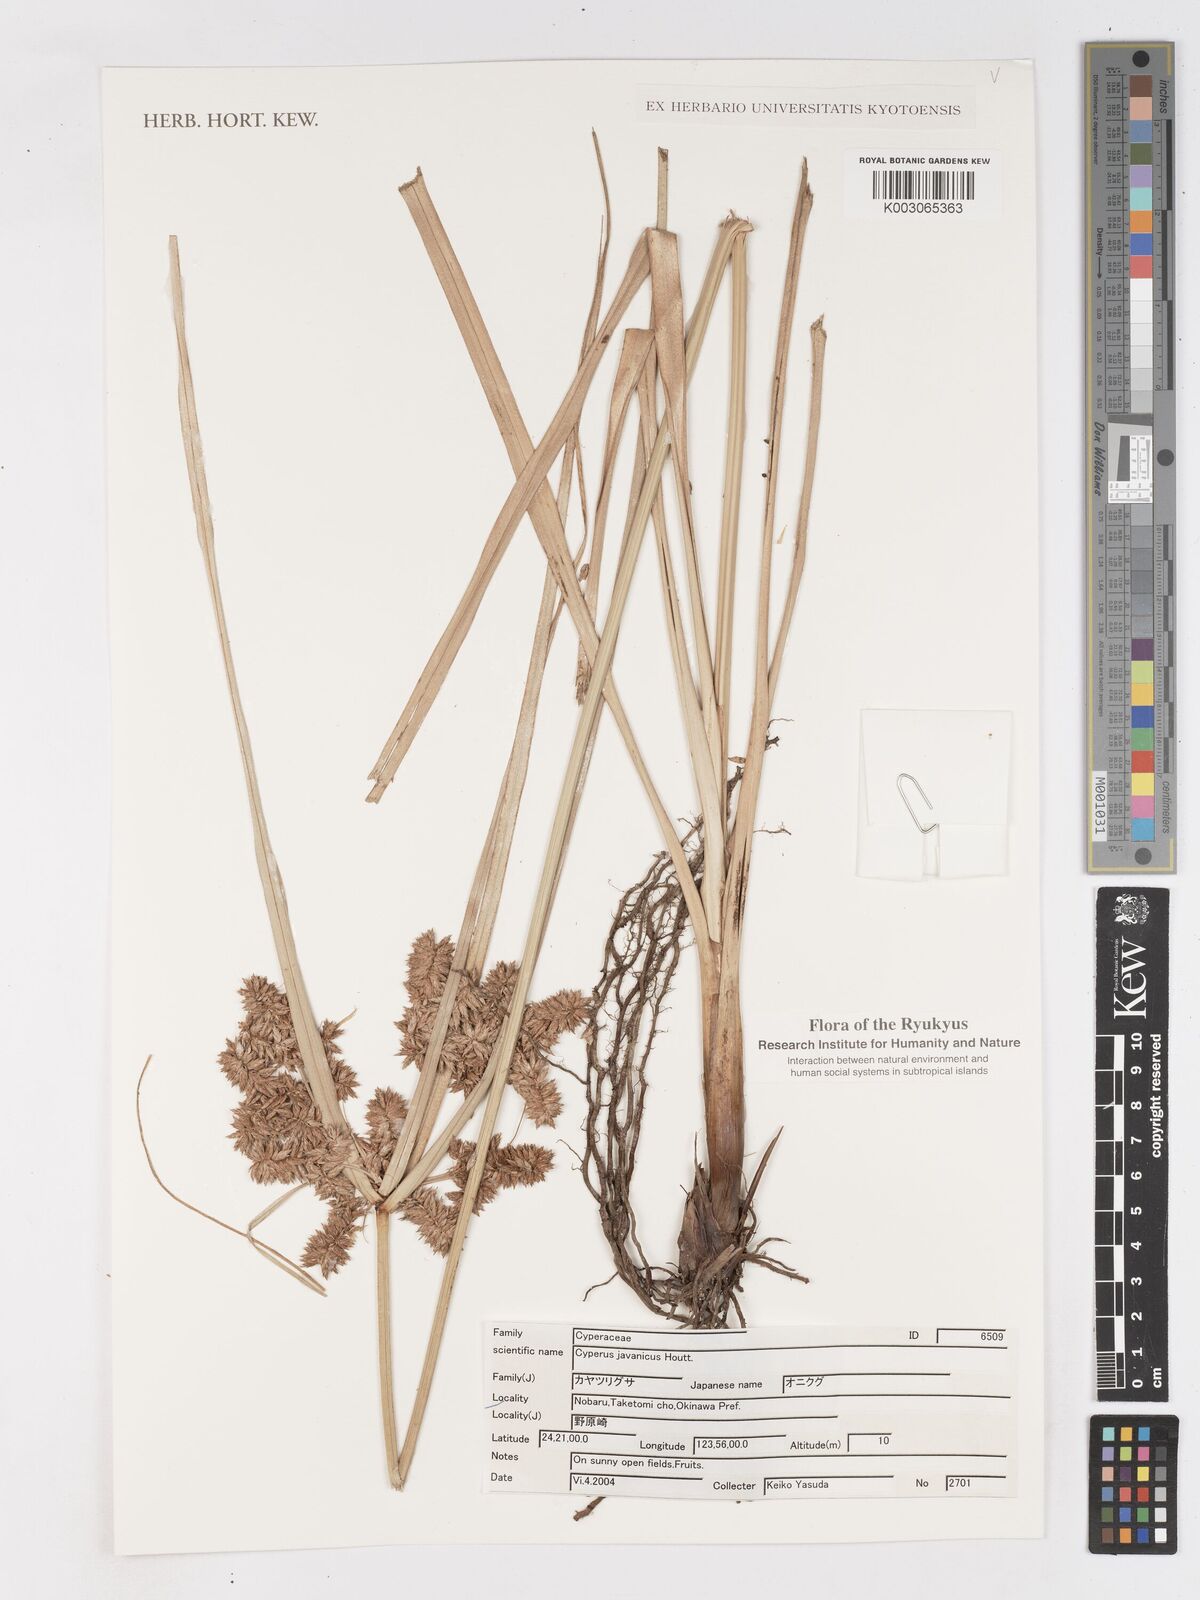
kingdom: Plantae
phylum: Tracheophyta
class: Liliopsida
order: Poales
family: Cyperaceae
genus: Cyperus
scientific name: Cyperus javanicus
